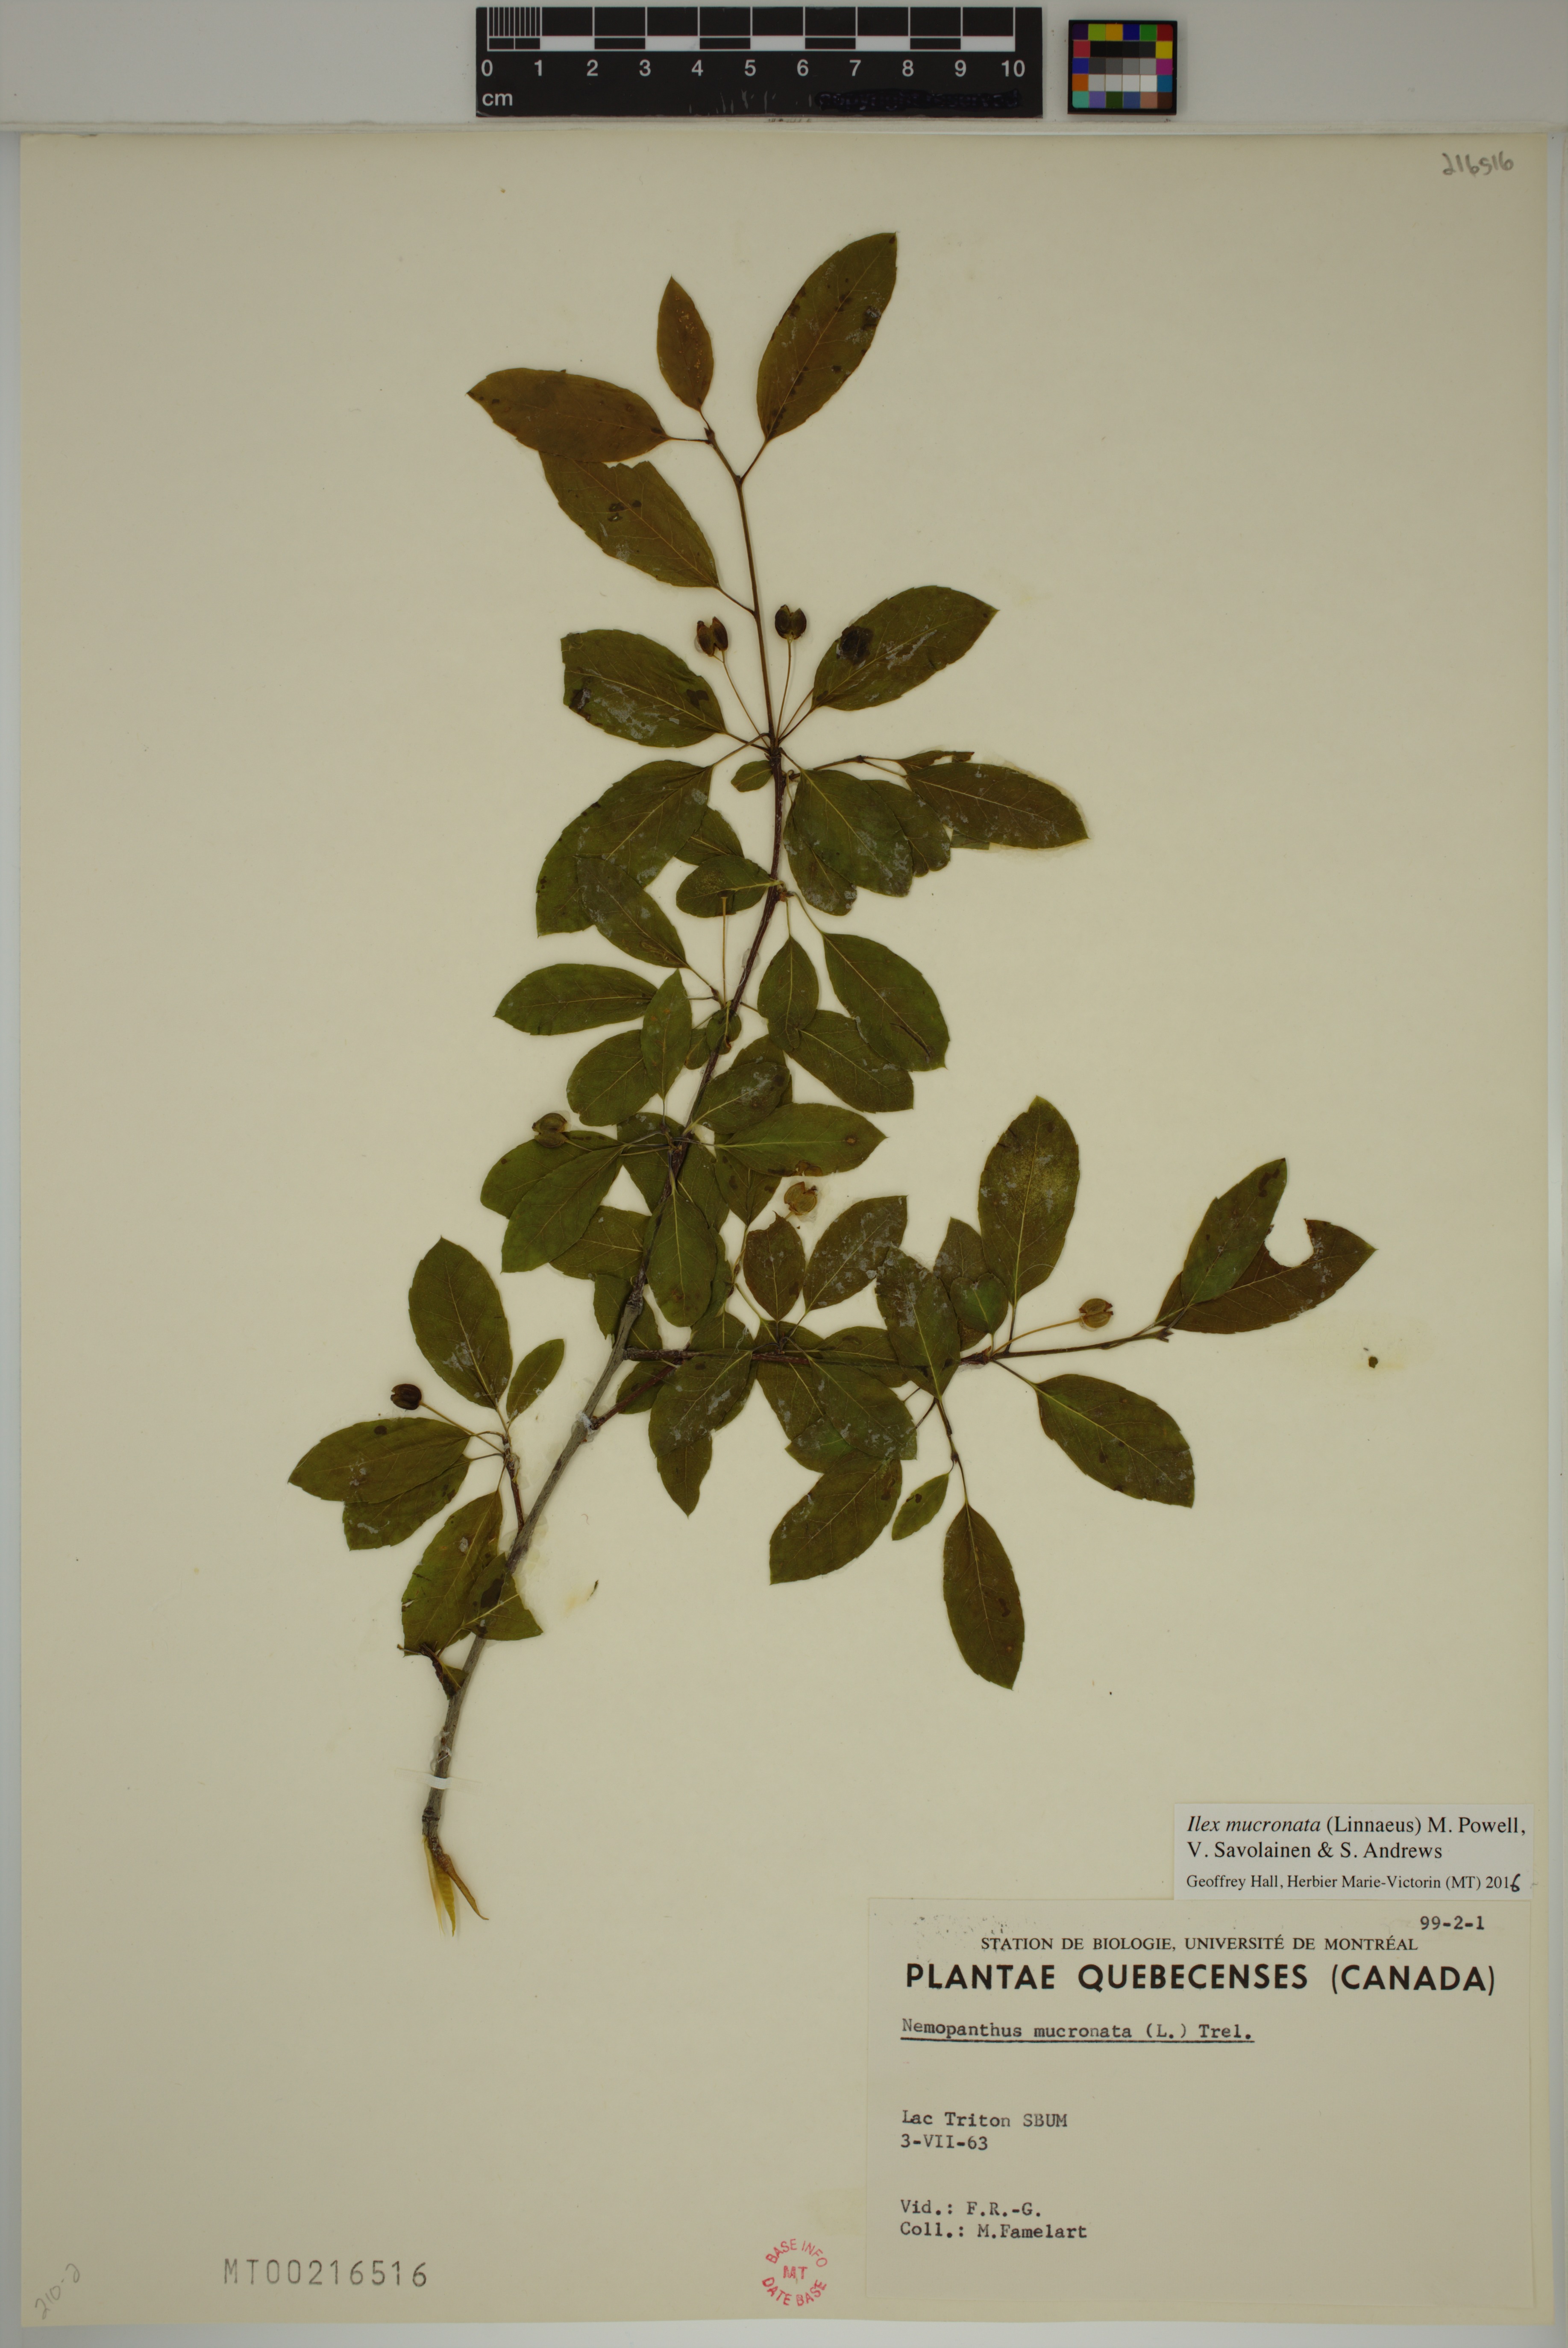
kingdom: Plantae
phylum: Tracheophyta
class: Magnoliopsida
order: Aquifoliales
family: Aquifoliaceae
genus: Ilex
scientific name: Ilex mucronata
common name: Catberry
